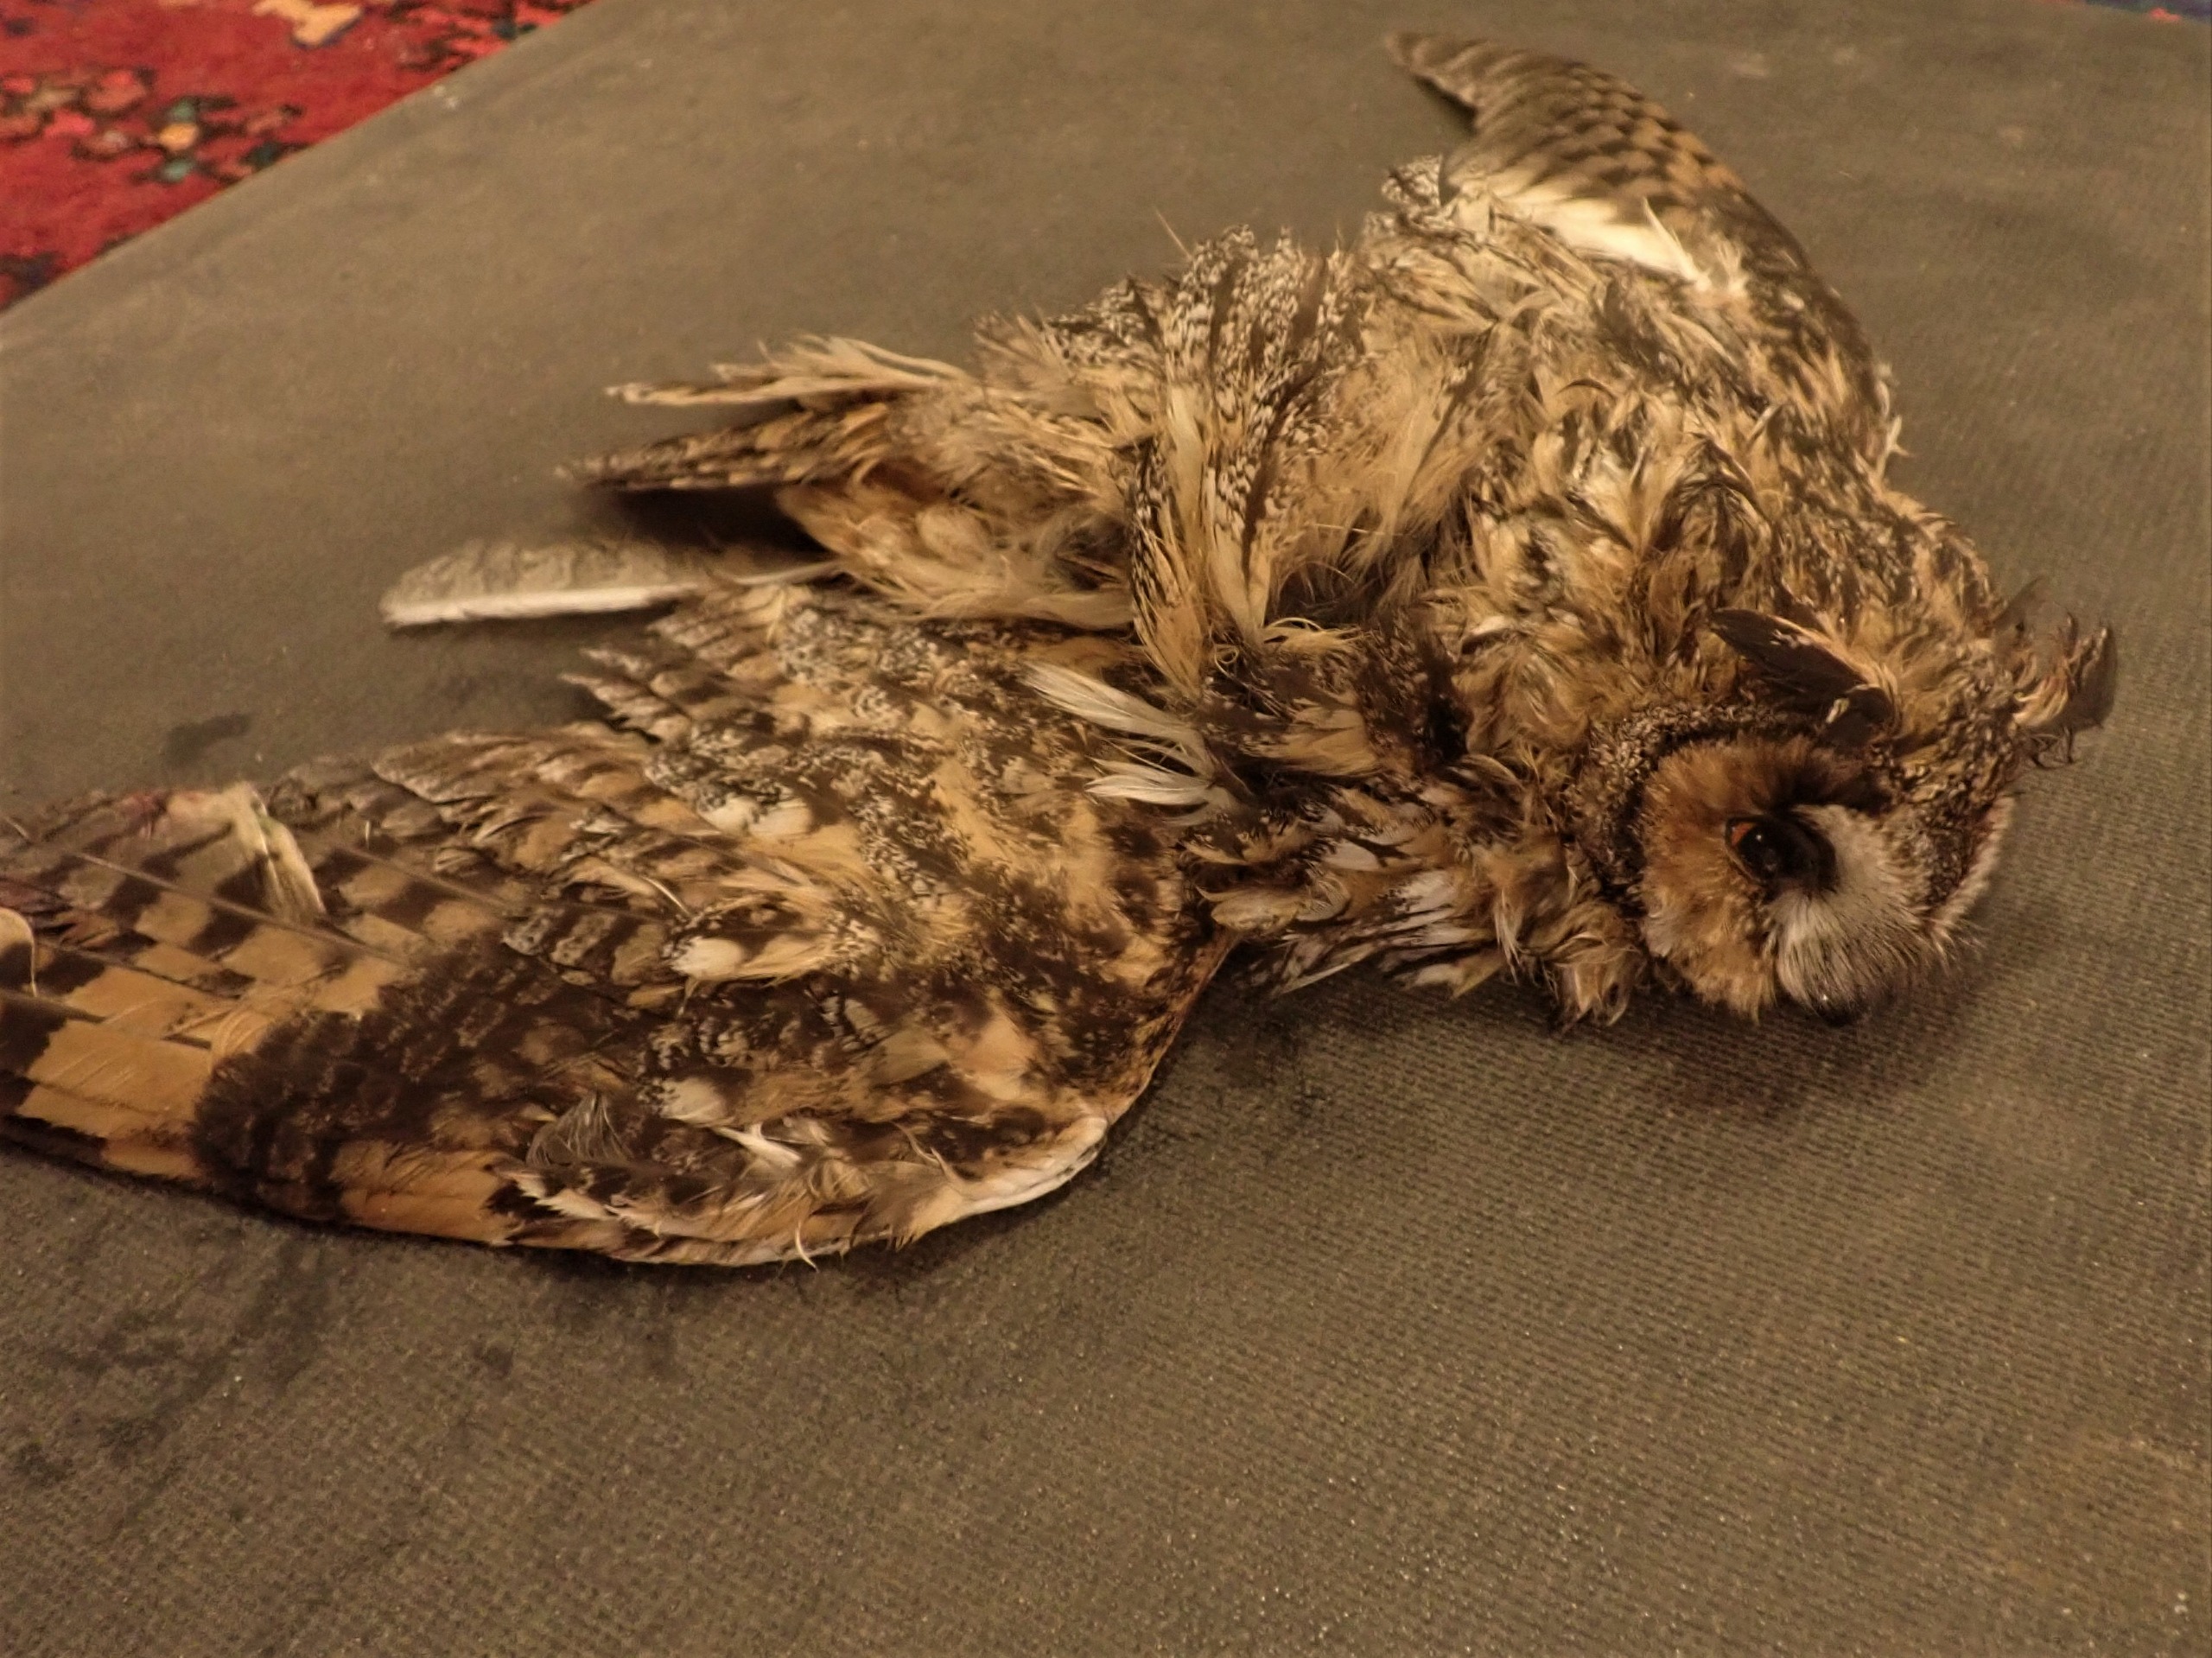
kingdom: Animalia
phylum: Chordata
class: Aves
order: Strigiformes
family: Strigidae
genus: Asio
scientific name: Asio otus
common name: Skovhornugle
